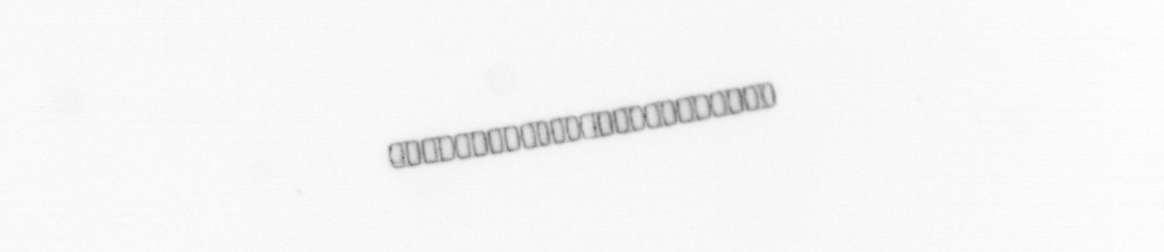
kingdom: Chromista
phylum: Ochrophyta
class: Bacillariophyceae
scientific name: Bacillariophyceae
